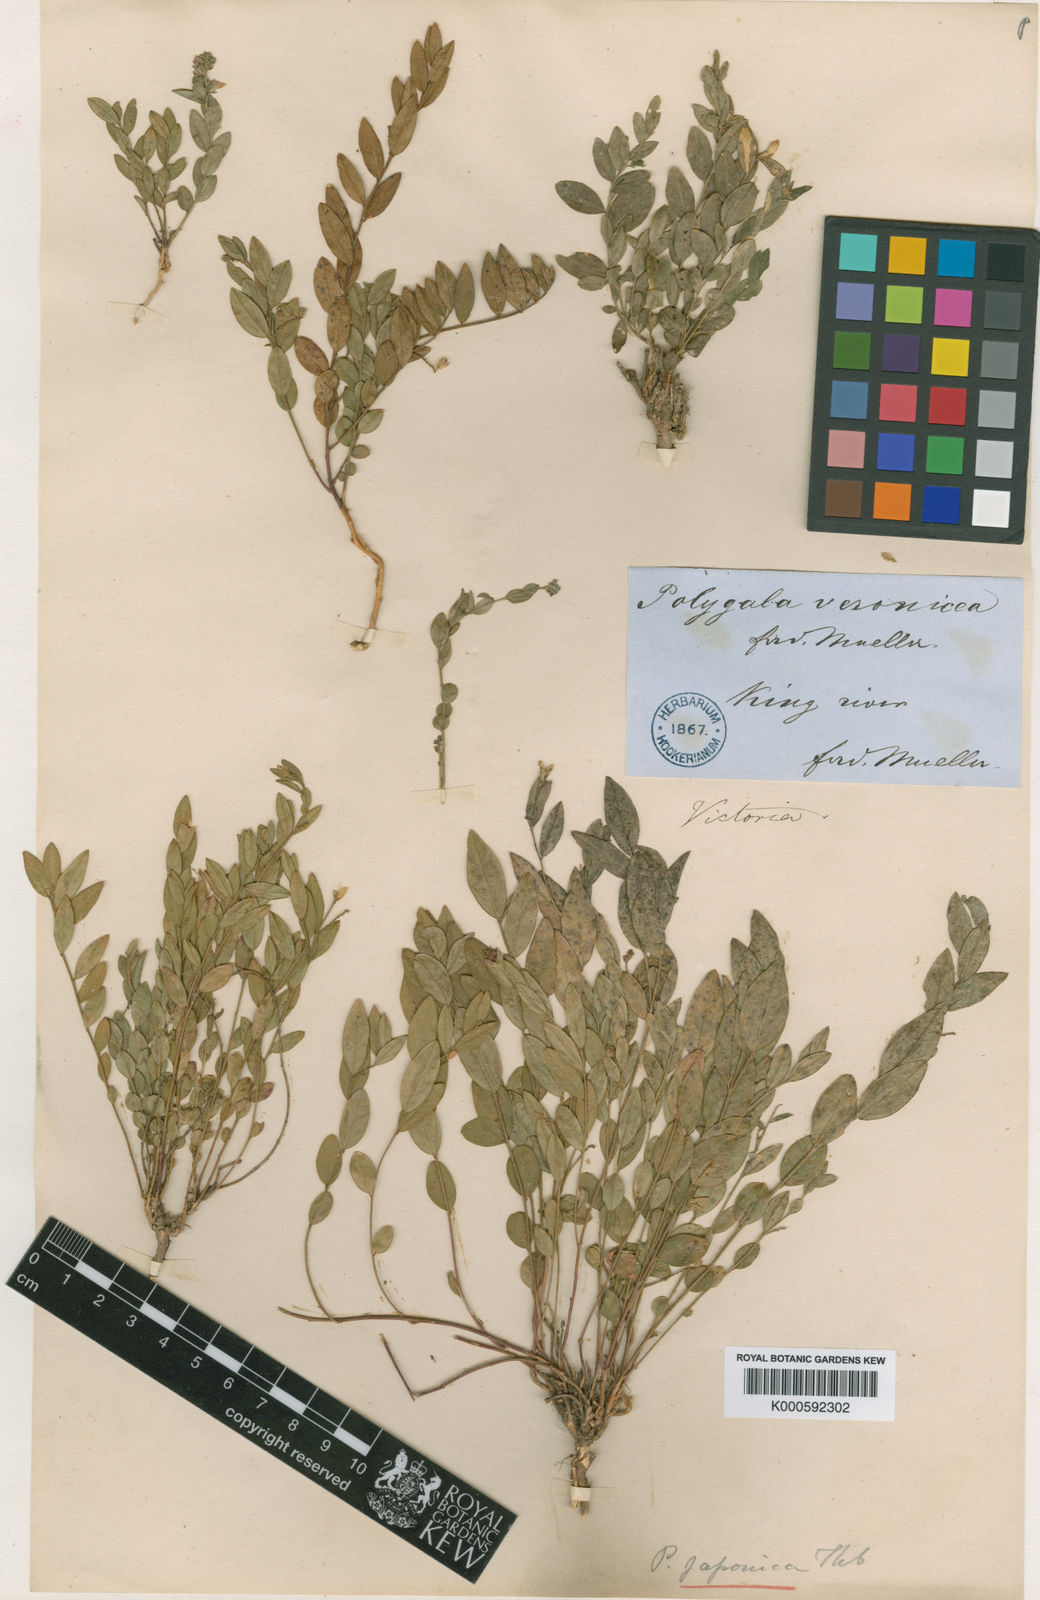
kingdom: Plantae
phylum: Tracheophyta
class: Magnoliopsida
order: Fabales
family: Polygalaceae
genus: Polygala
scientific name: Polygala japonica
